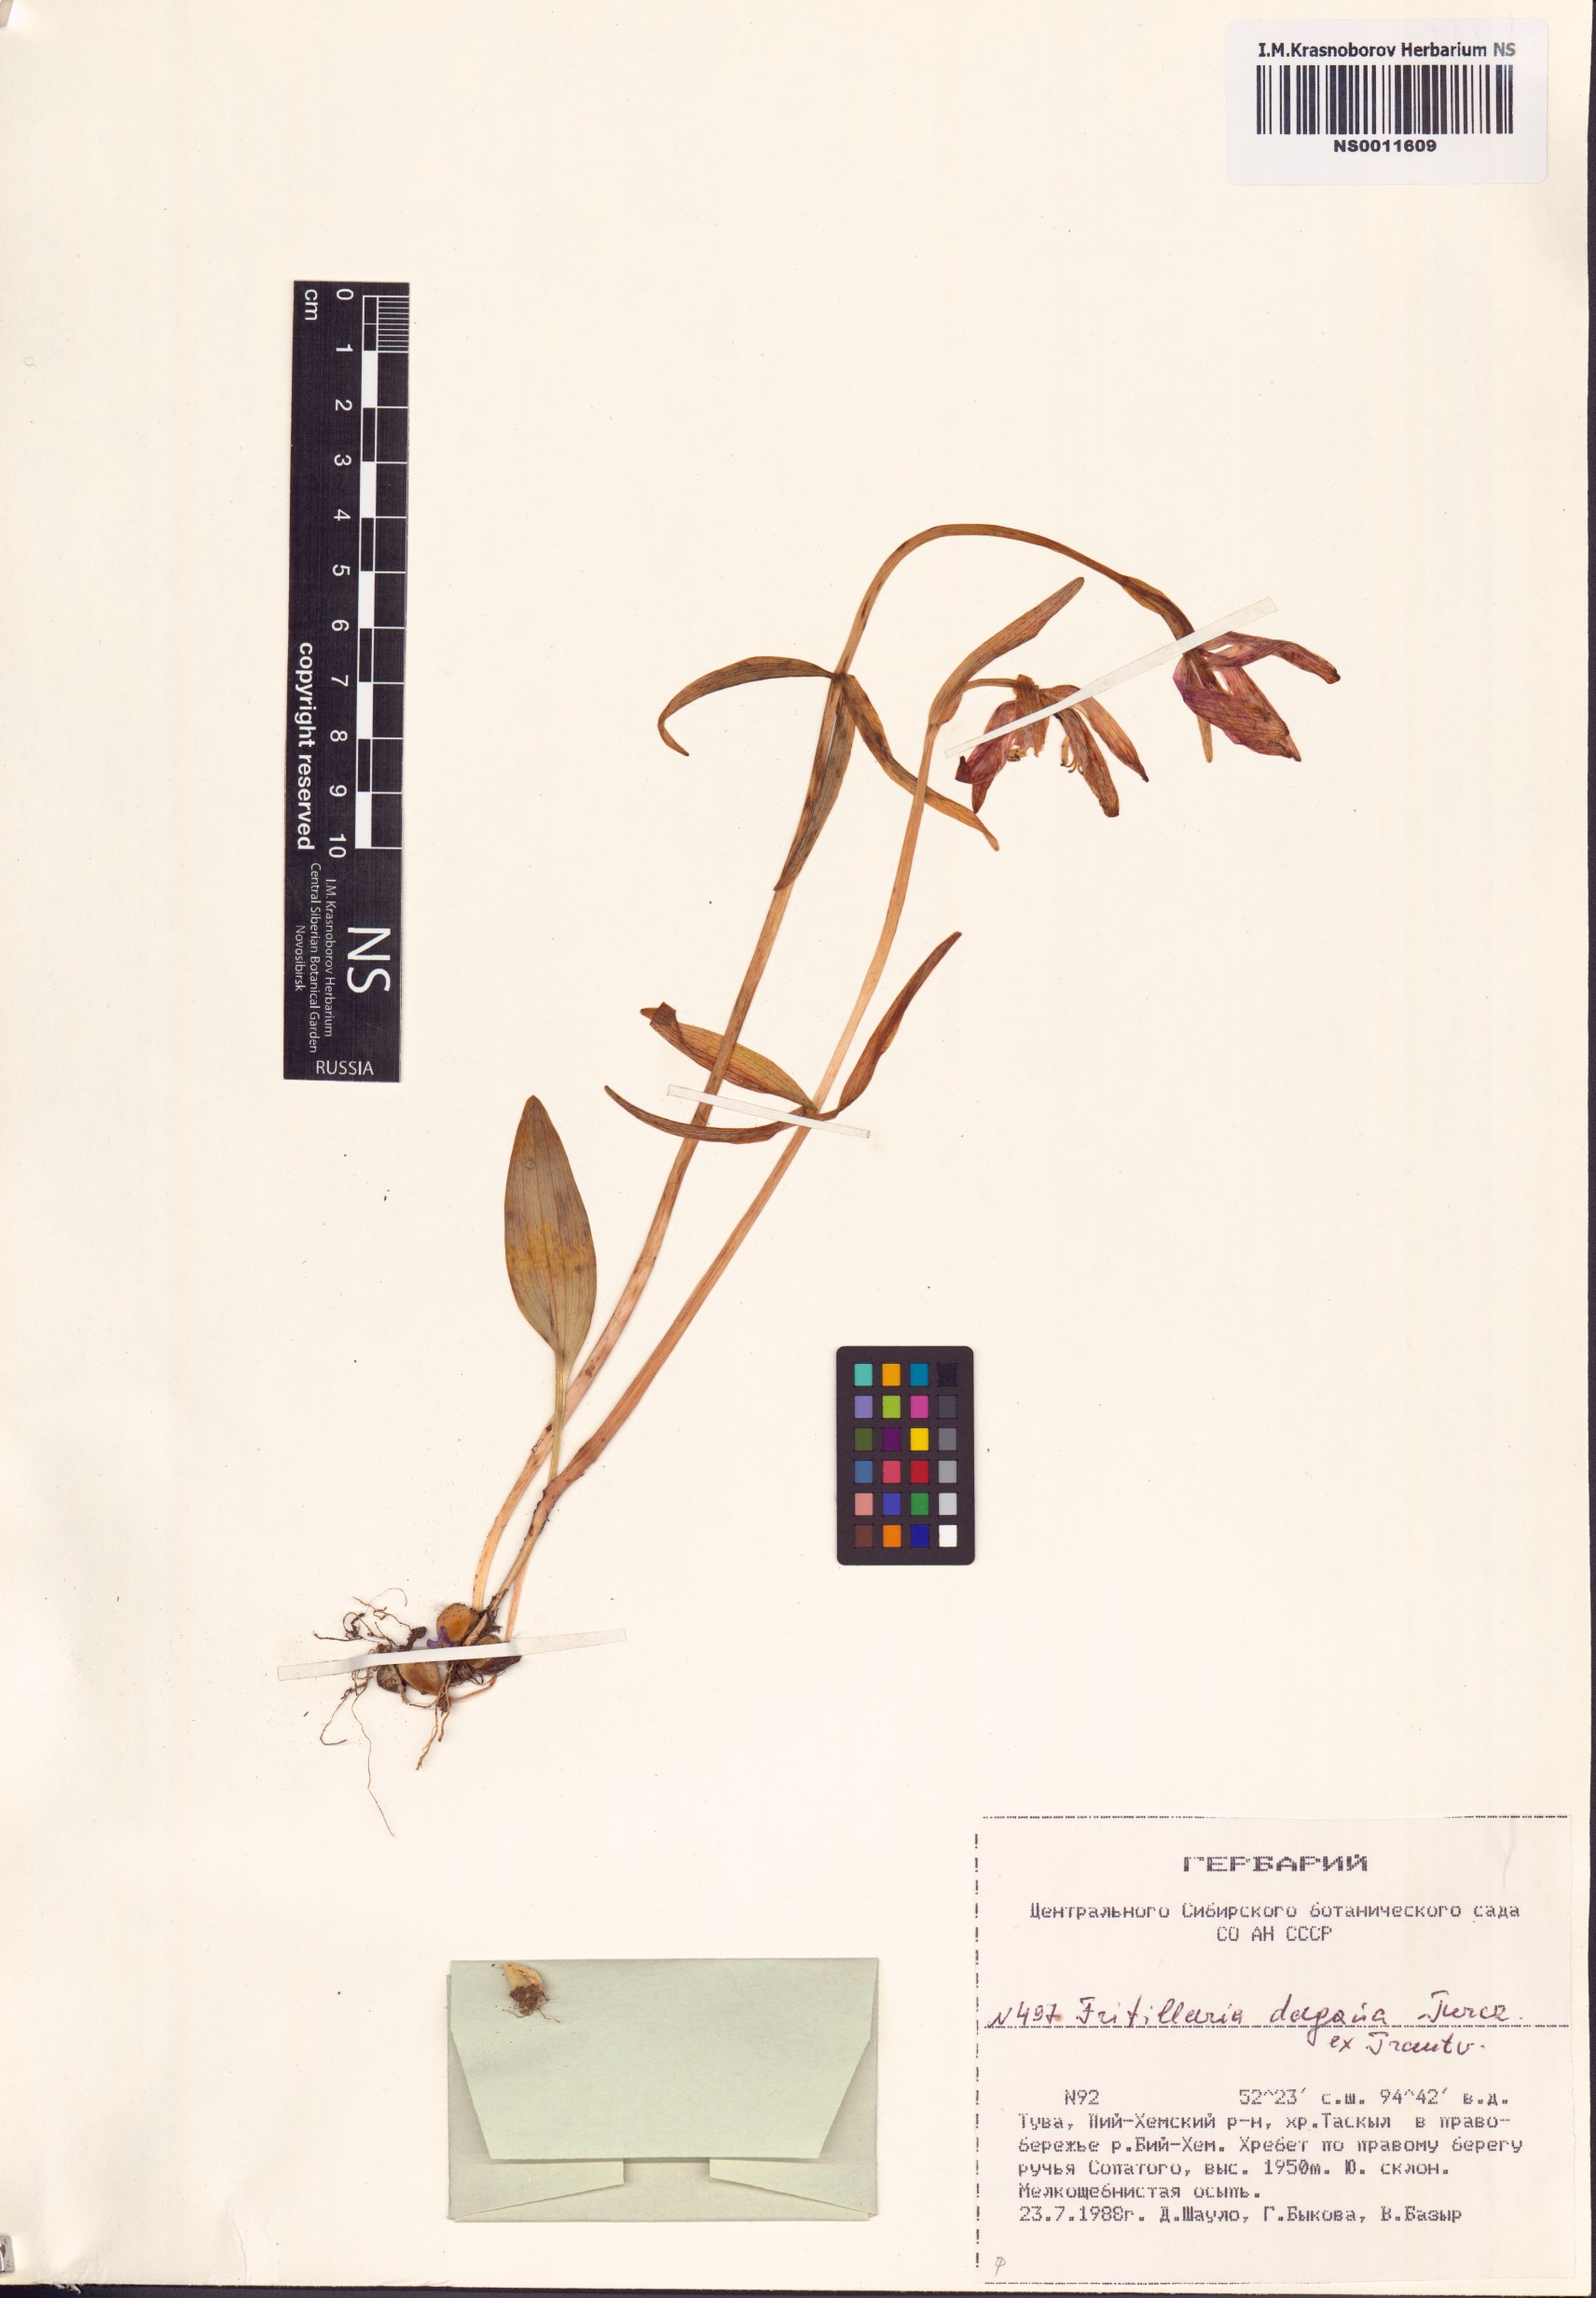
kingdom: Plantae
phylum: Tracheophyta
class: Liliopsida
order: Liliales
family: Liliaceae
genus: Fritillaria
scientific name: Fritillaria dagana
